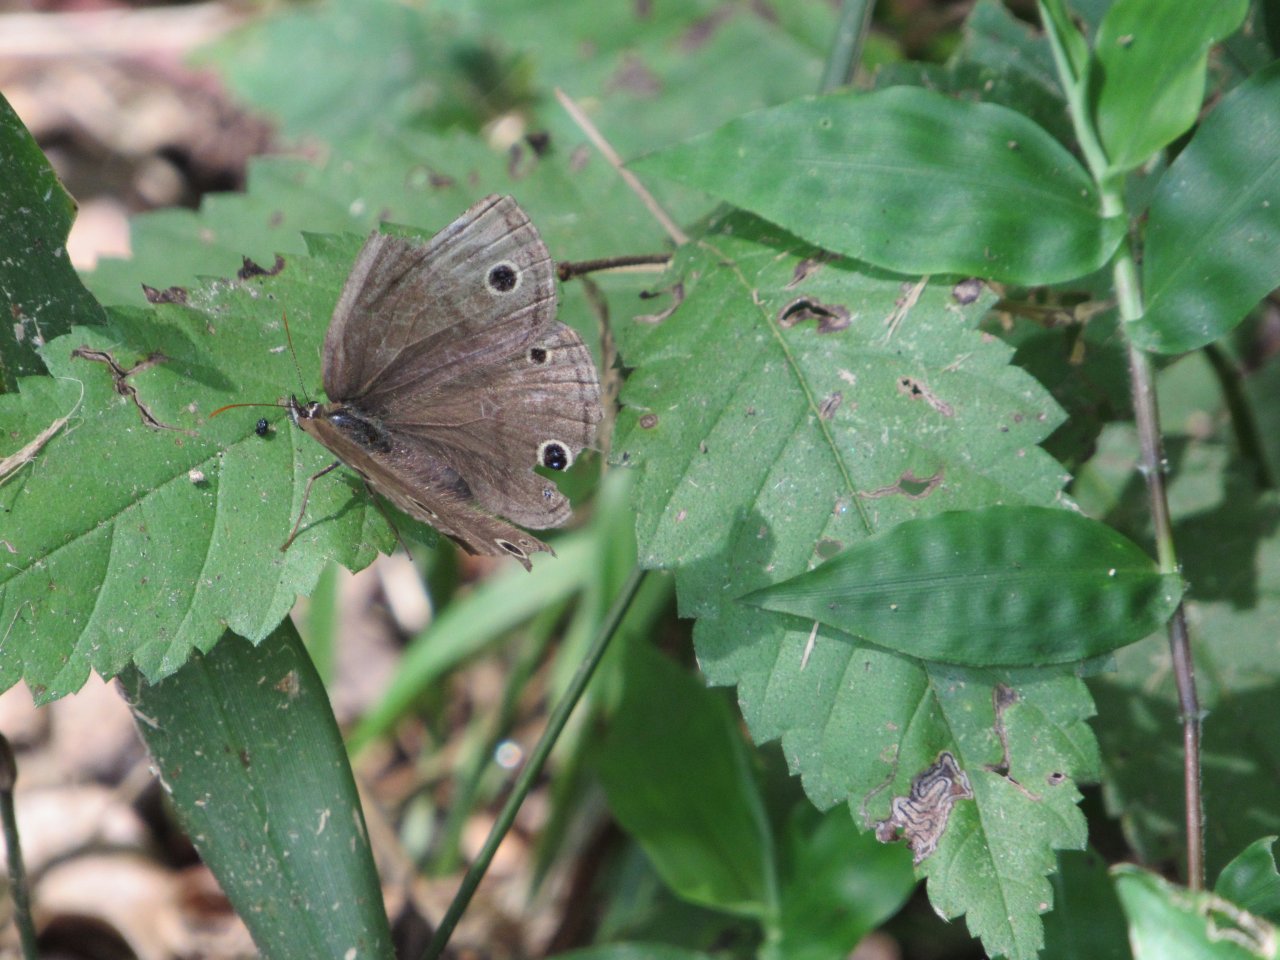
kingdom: Animalia
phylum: Arthropoda
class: Insecta
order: Lepidoptera
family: Nymphalidae
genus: Euptychia
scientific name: Euptychia cymela
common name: Little Wood Satyr
